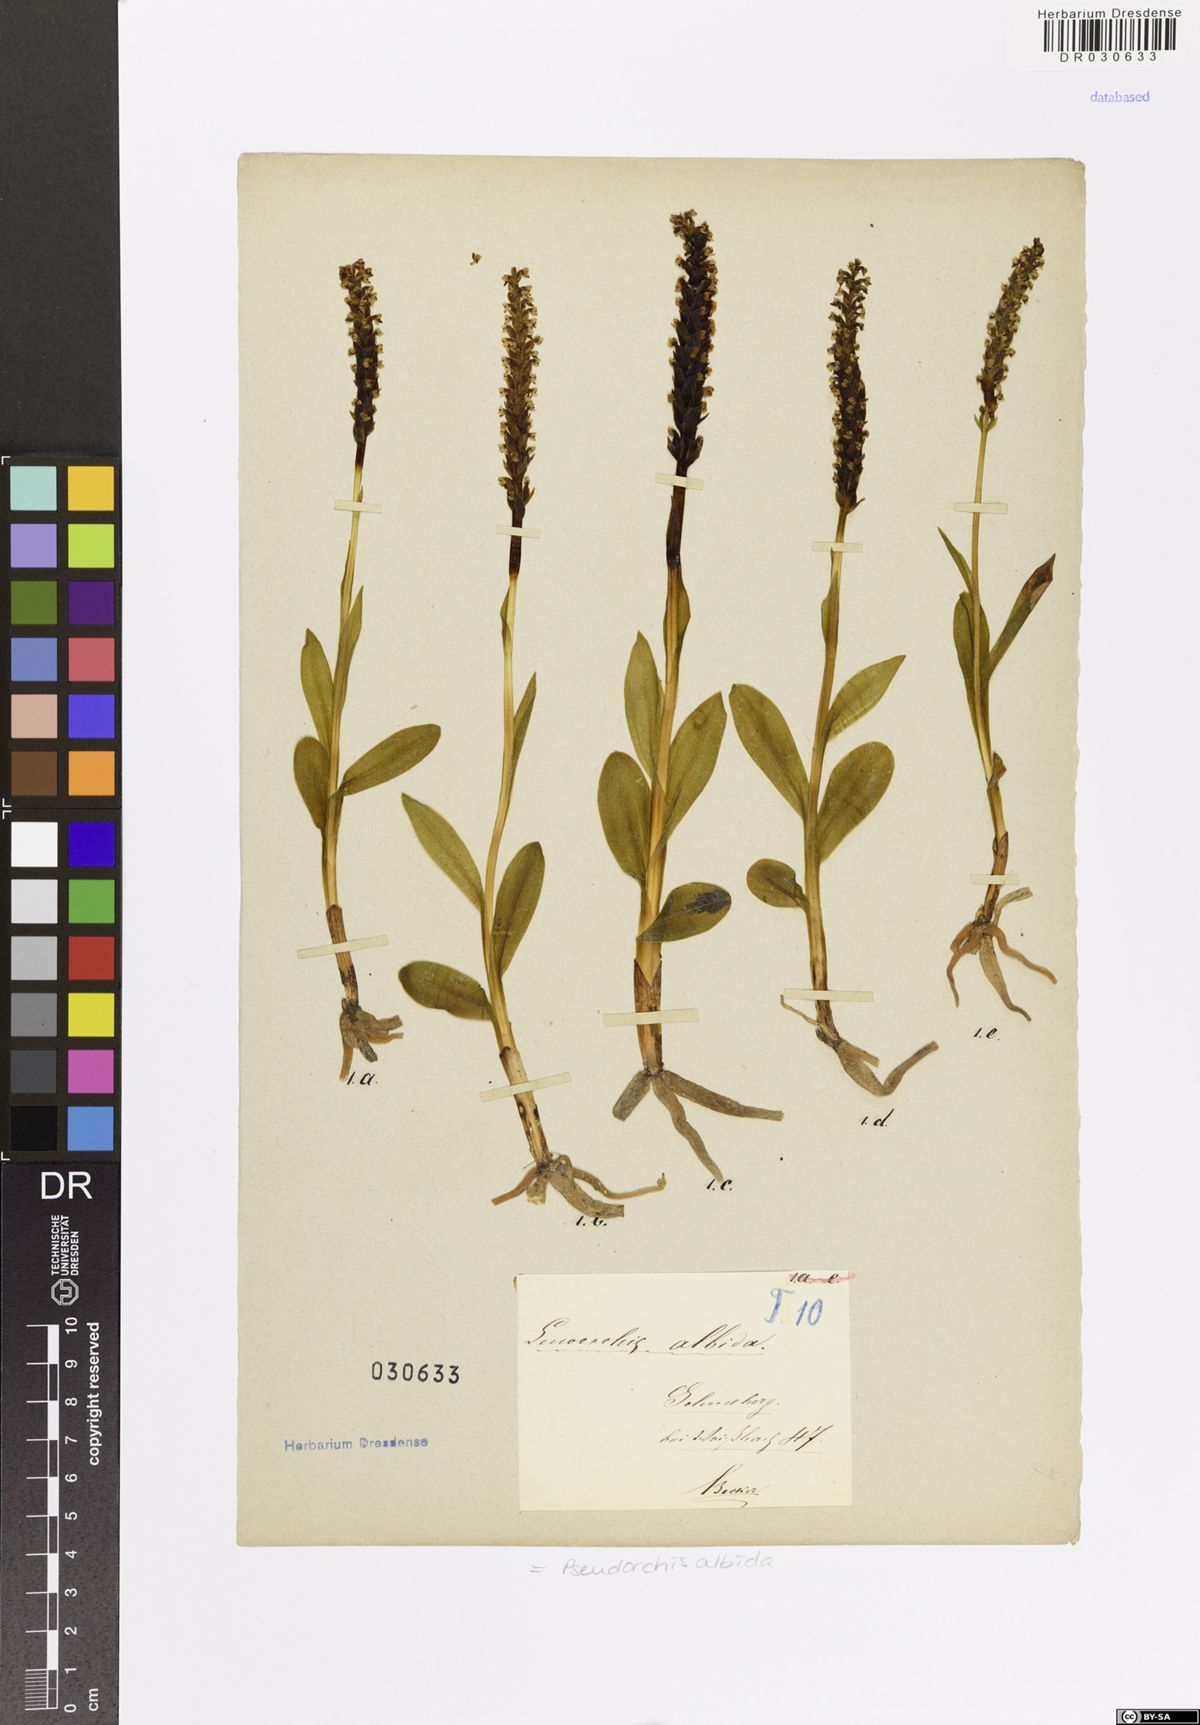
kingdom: Plantae
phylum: Tracheophyta
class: Liliopsida
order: Asparagales
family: Orchidaceae
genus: Pseudorchis
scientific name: Pseudorchis albida
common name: Small-white orchid
